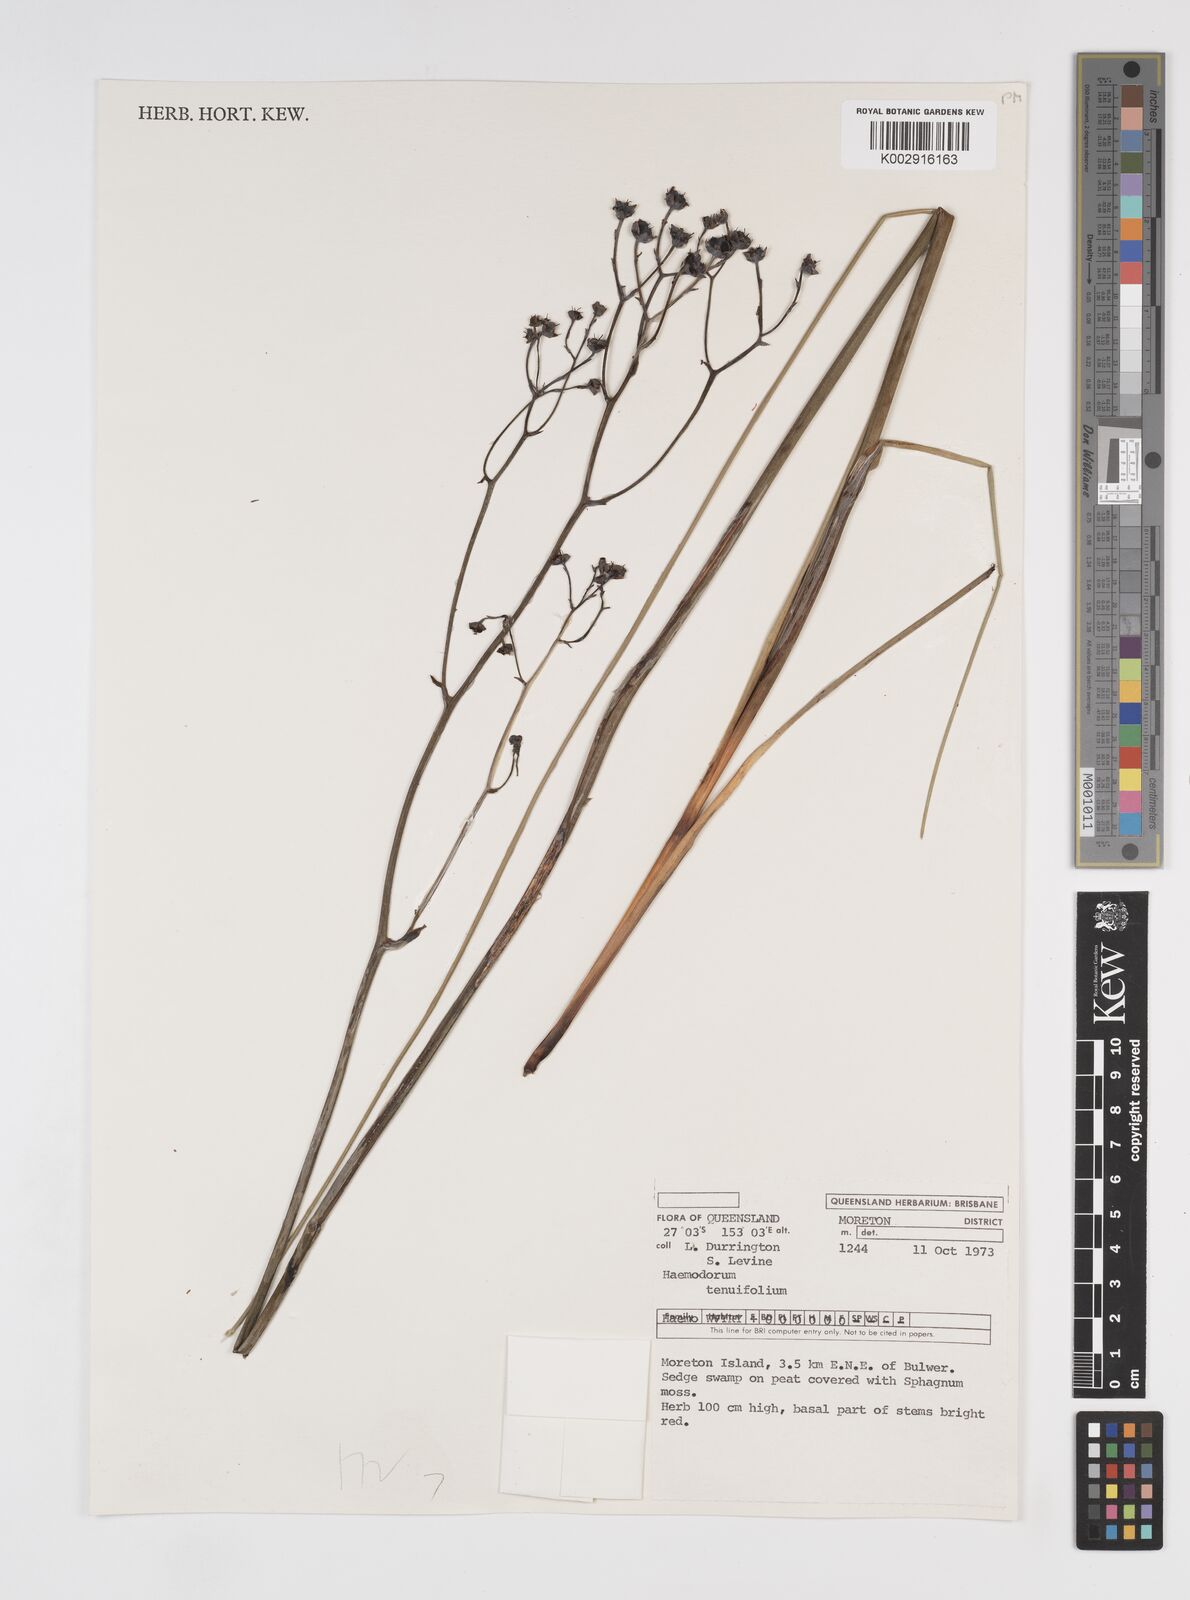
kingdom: Plantae
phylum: Tracheophyta
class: Liliopsida
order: Commelinales
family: Haemodoraceae
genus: Haemodorum
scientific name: Haemodorum tenuifolium
